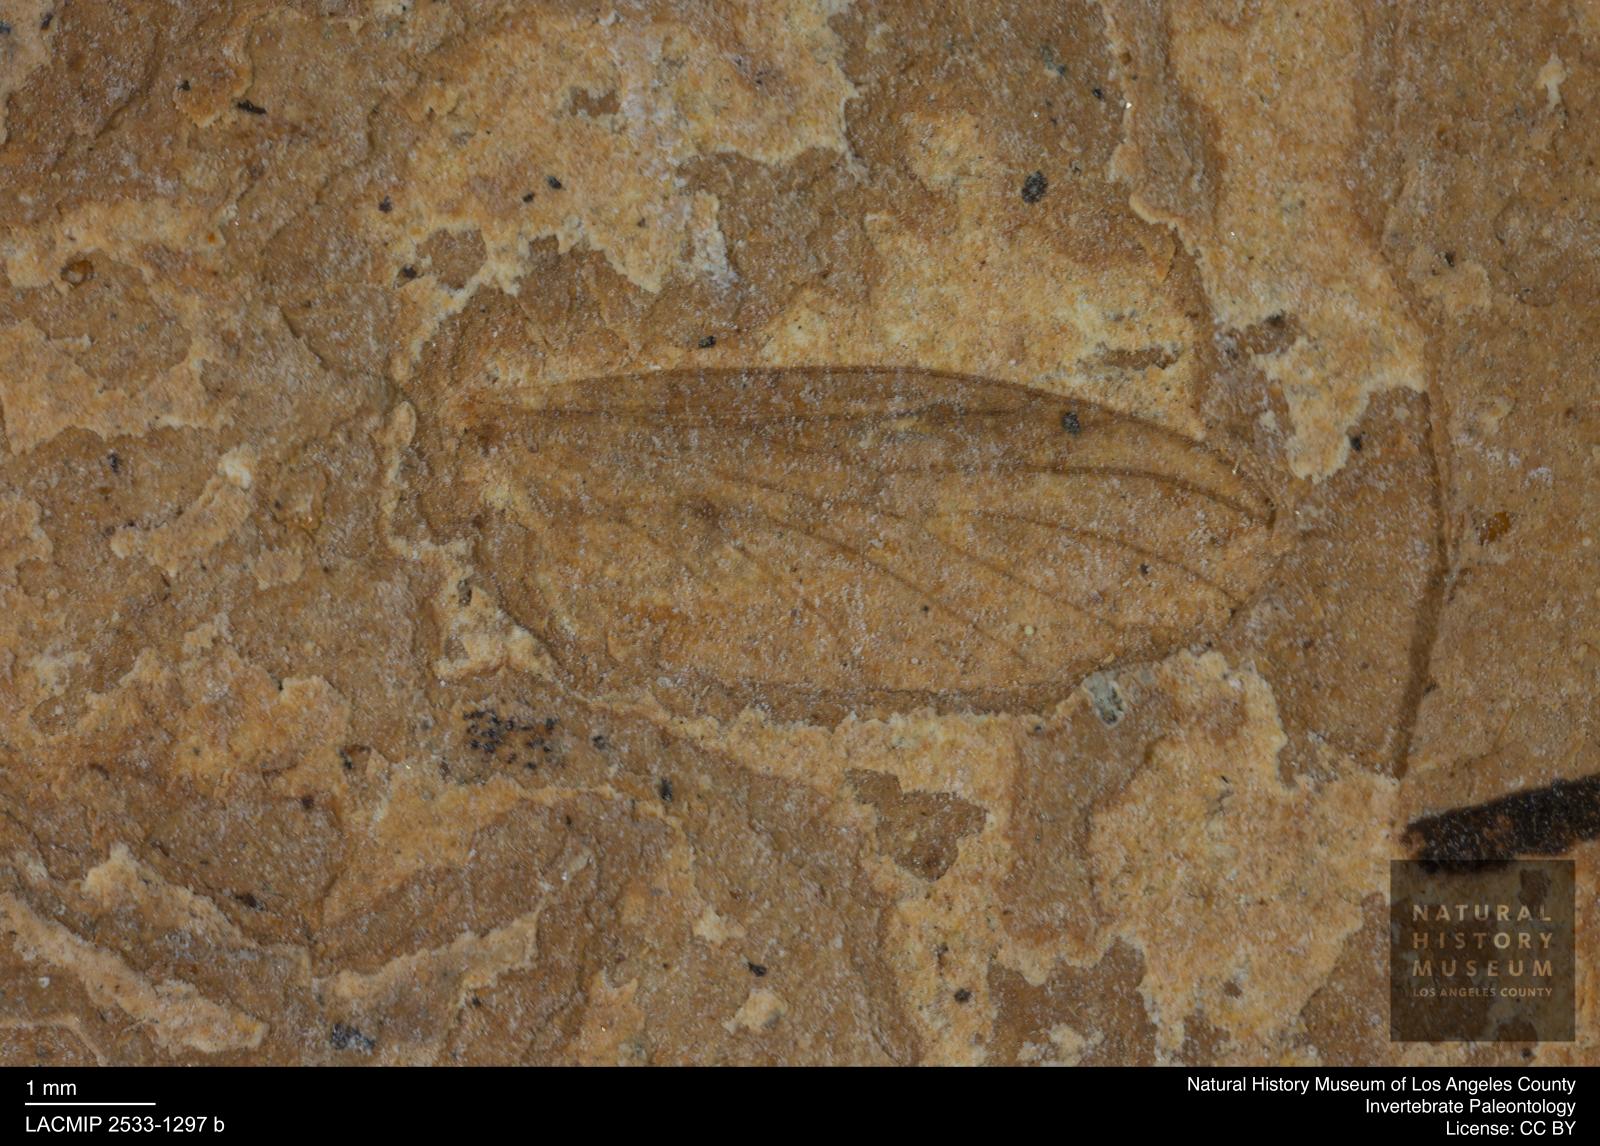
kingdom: Animalia
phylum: Arthropoda
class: Insecta
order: Diptera
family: Bibionidae
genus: Plecia
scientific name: Plecia hypogaea
